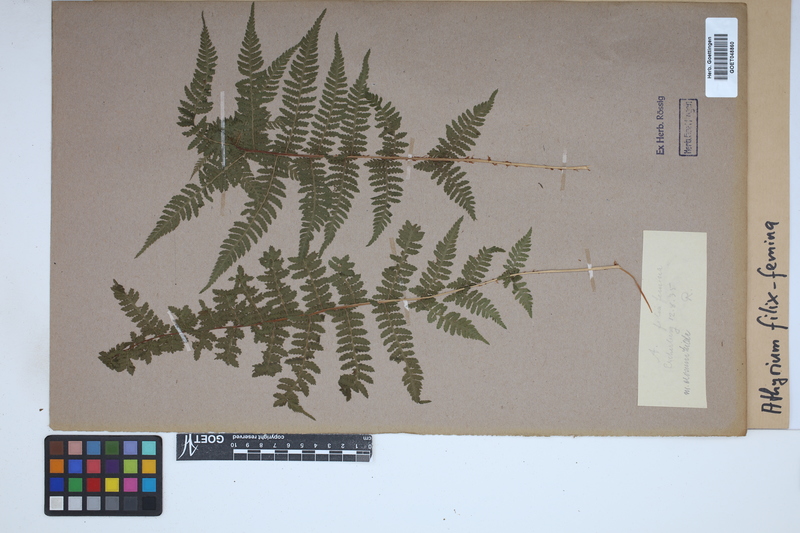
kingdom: Plantae
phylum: Tracheophyta
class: Polypodiopsida
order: Polypodiales
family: Athyriaceae
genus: Athyrium
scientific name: Athyrium filix-femina
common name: Lady fern
